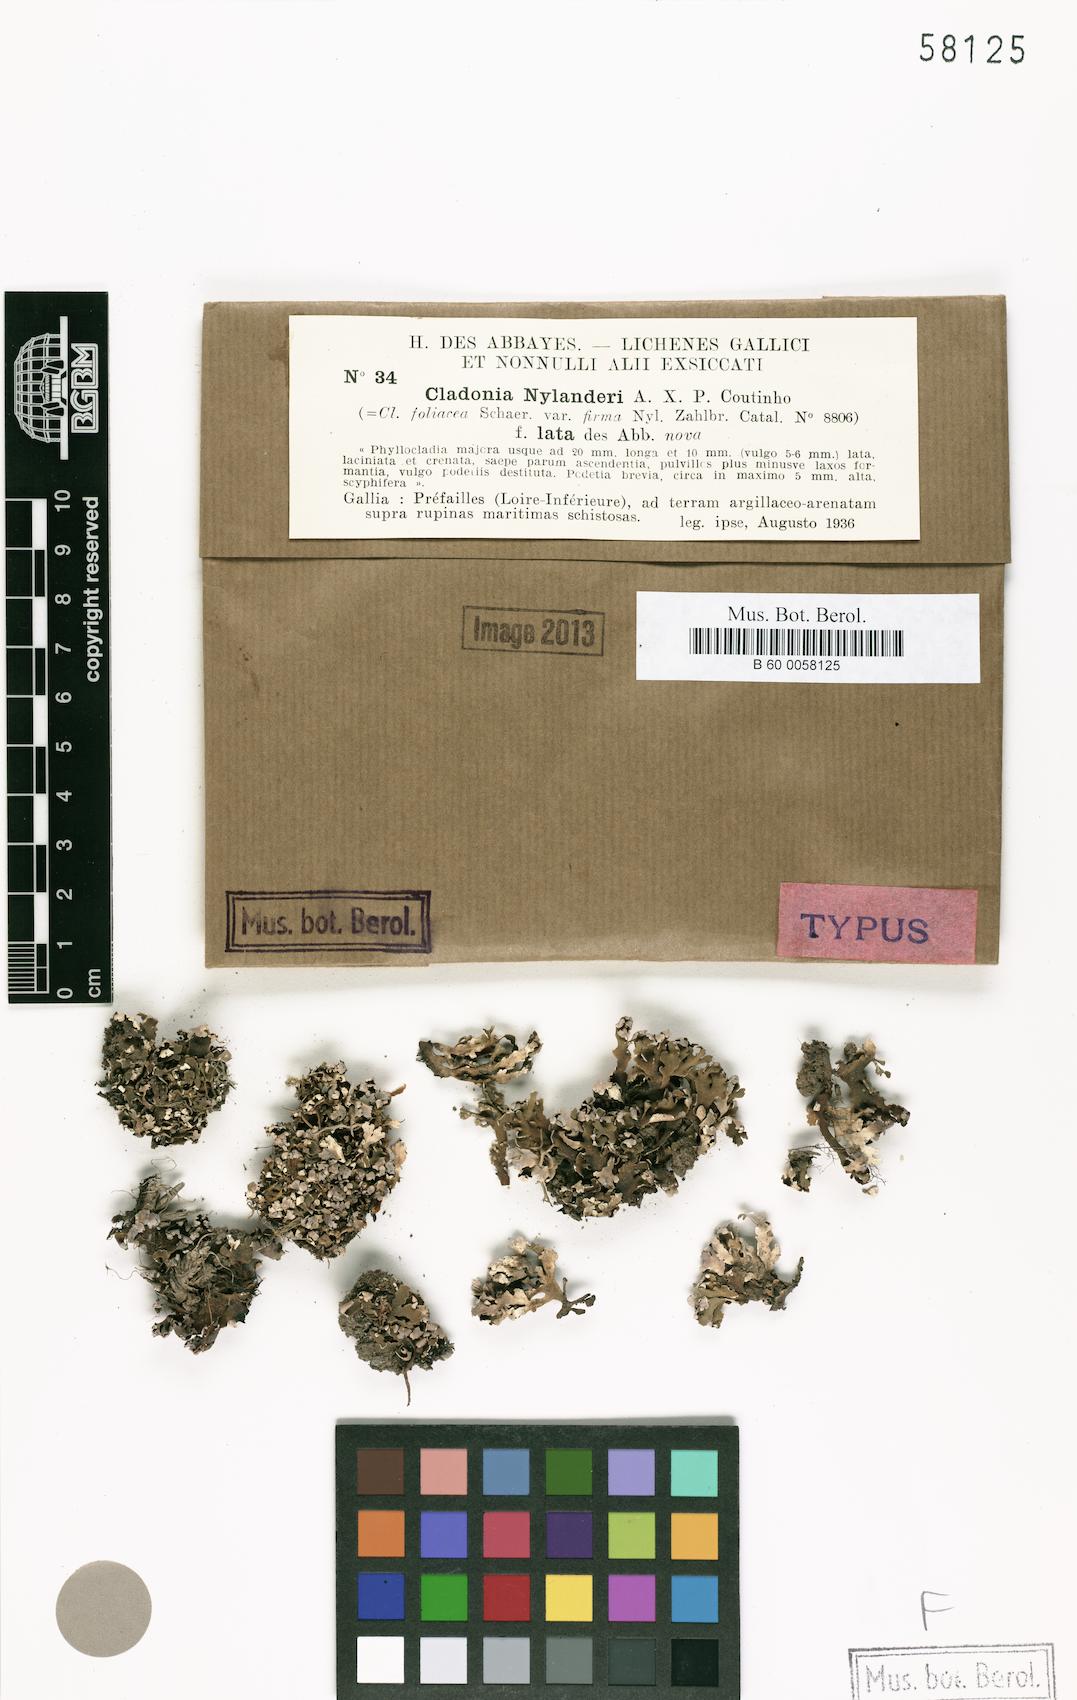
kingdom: Fungi
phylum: Ascomycota
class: Lecanoromycetes
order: Lecanorales
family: Cladoniaceae
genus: Cladonia
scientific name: Cladonia firma
